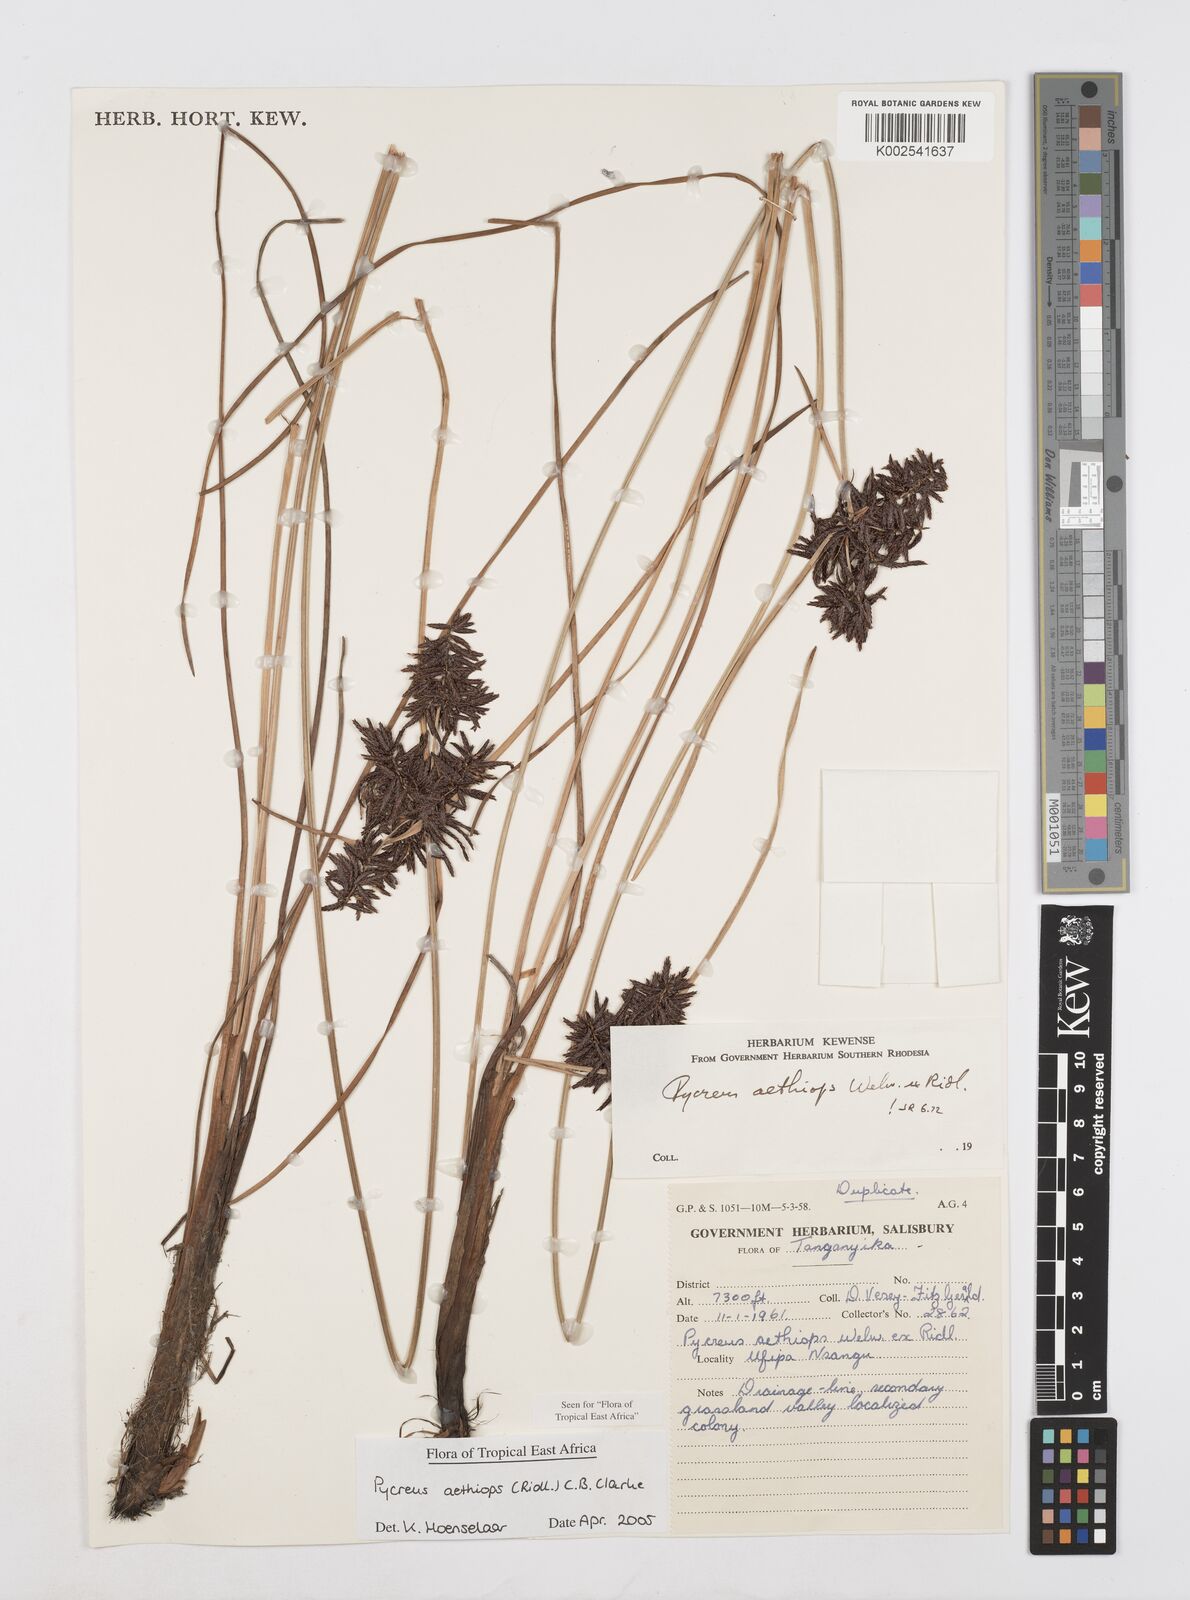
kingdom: Plantae
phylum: Tracheophyta
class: Liliopsida
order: Poales
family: Cyperaceae
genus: Cyperus
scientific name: Cyperus aethiops
